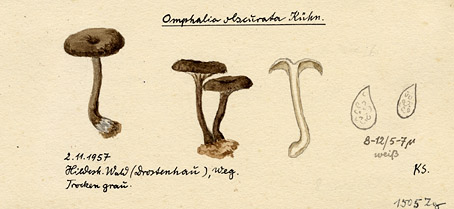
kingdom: Fungi
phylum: Basidiomycota
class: Agaricomycetes
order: Agaricales
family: Hygrophoraceae
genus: Arrhenia
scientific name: Arrhenia obscurata
